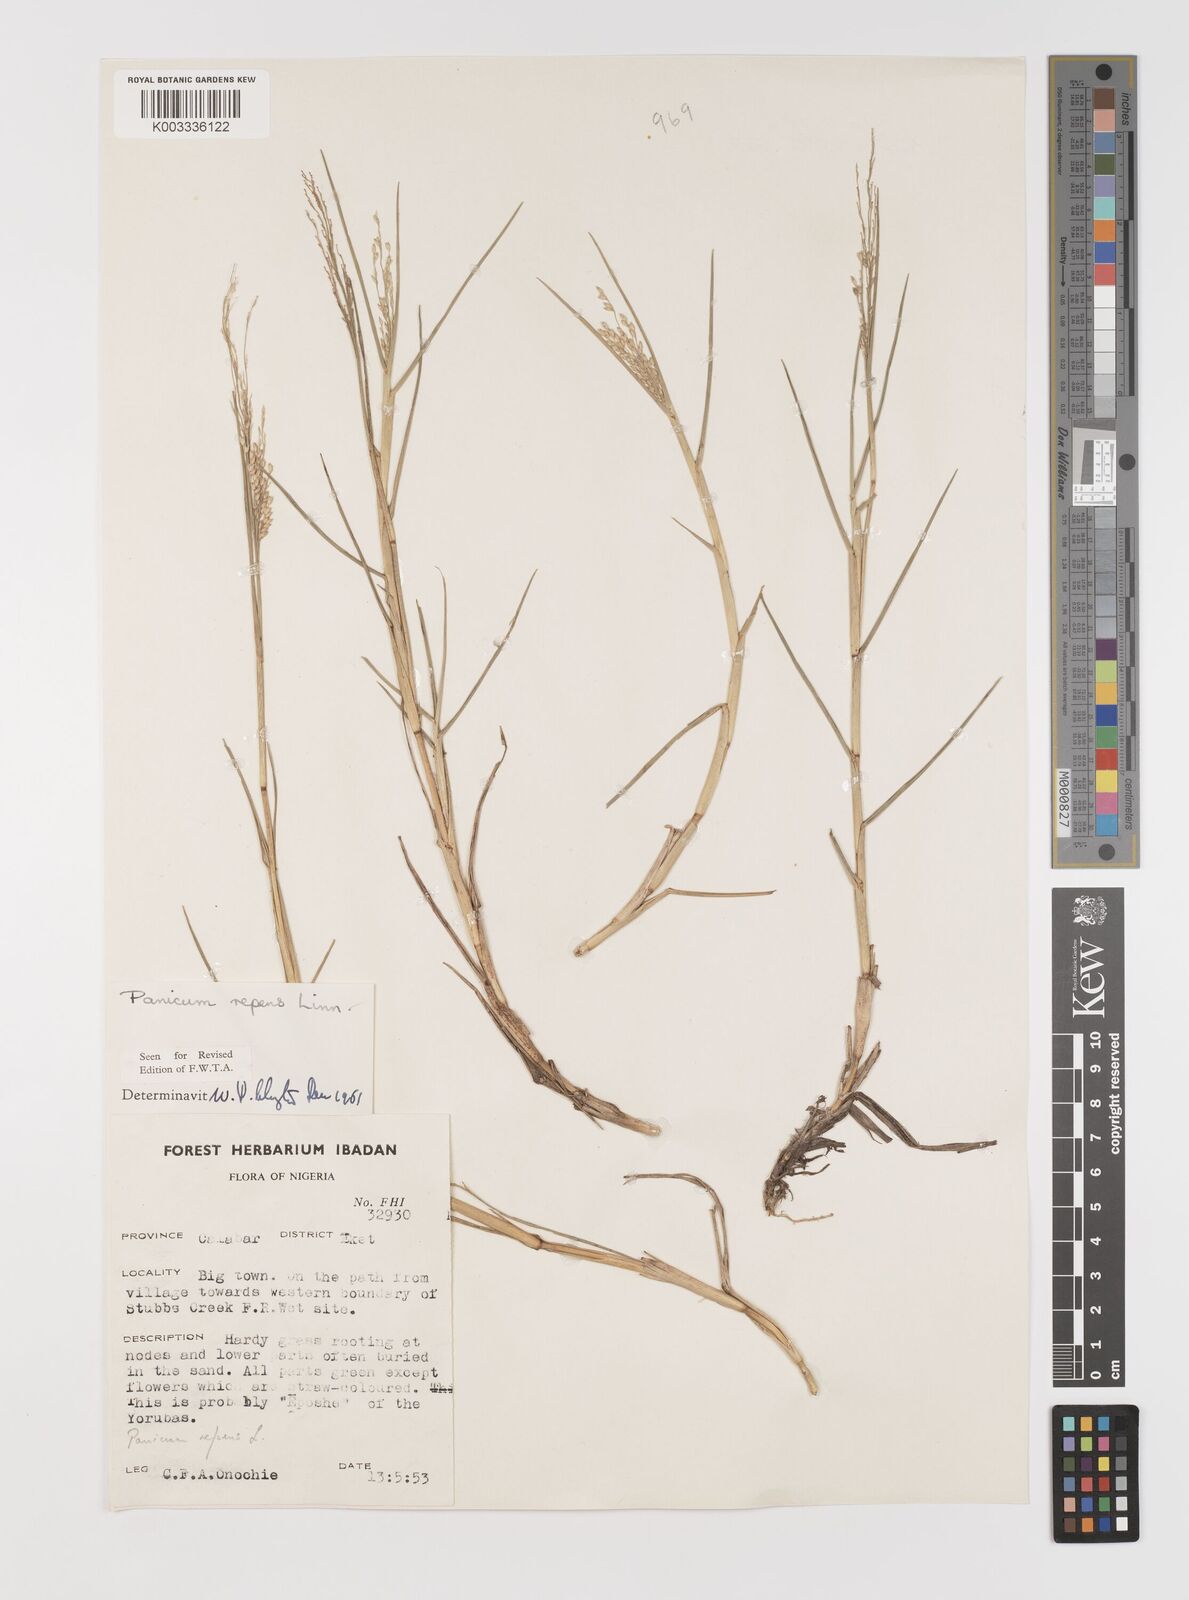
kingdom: Plantae
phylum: Tracheophyta
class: Liliopsida
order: Poales
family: Poaceae
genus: Panicum
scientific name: Panicum repens
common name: Torpedo grass
